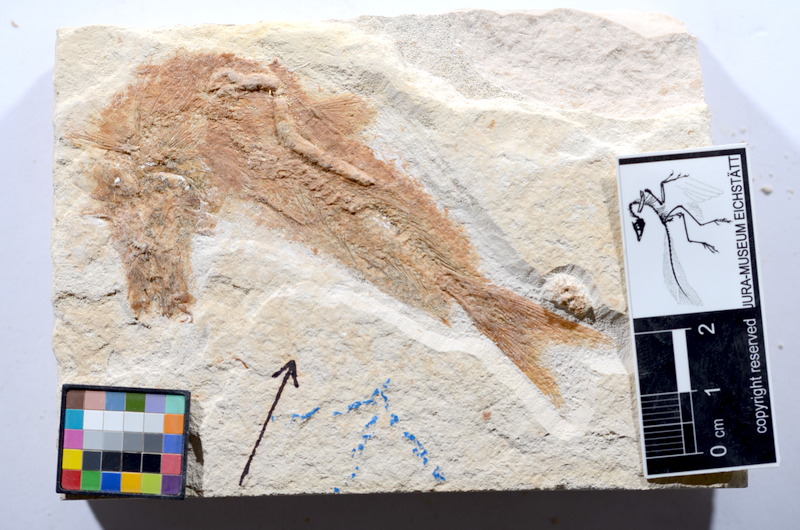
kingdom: Animalia
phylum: Chordata
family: Ascalaboidae
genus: Tharsis
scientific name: Tharsis dubius
